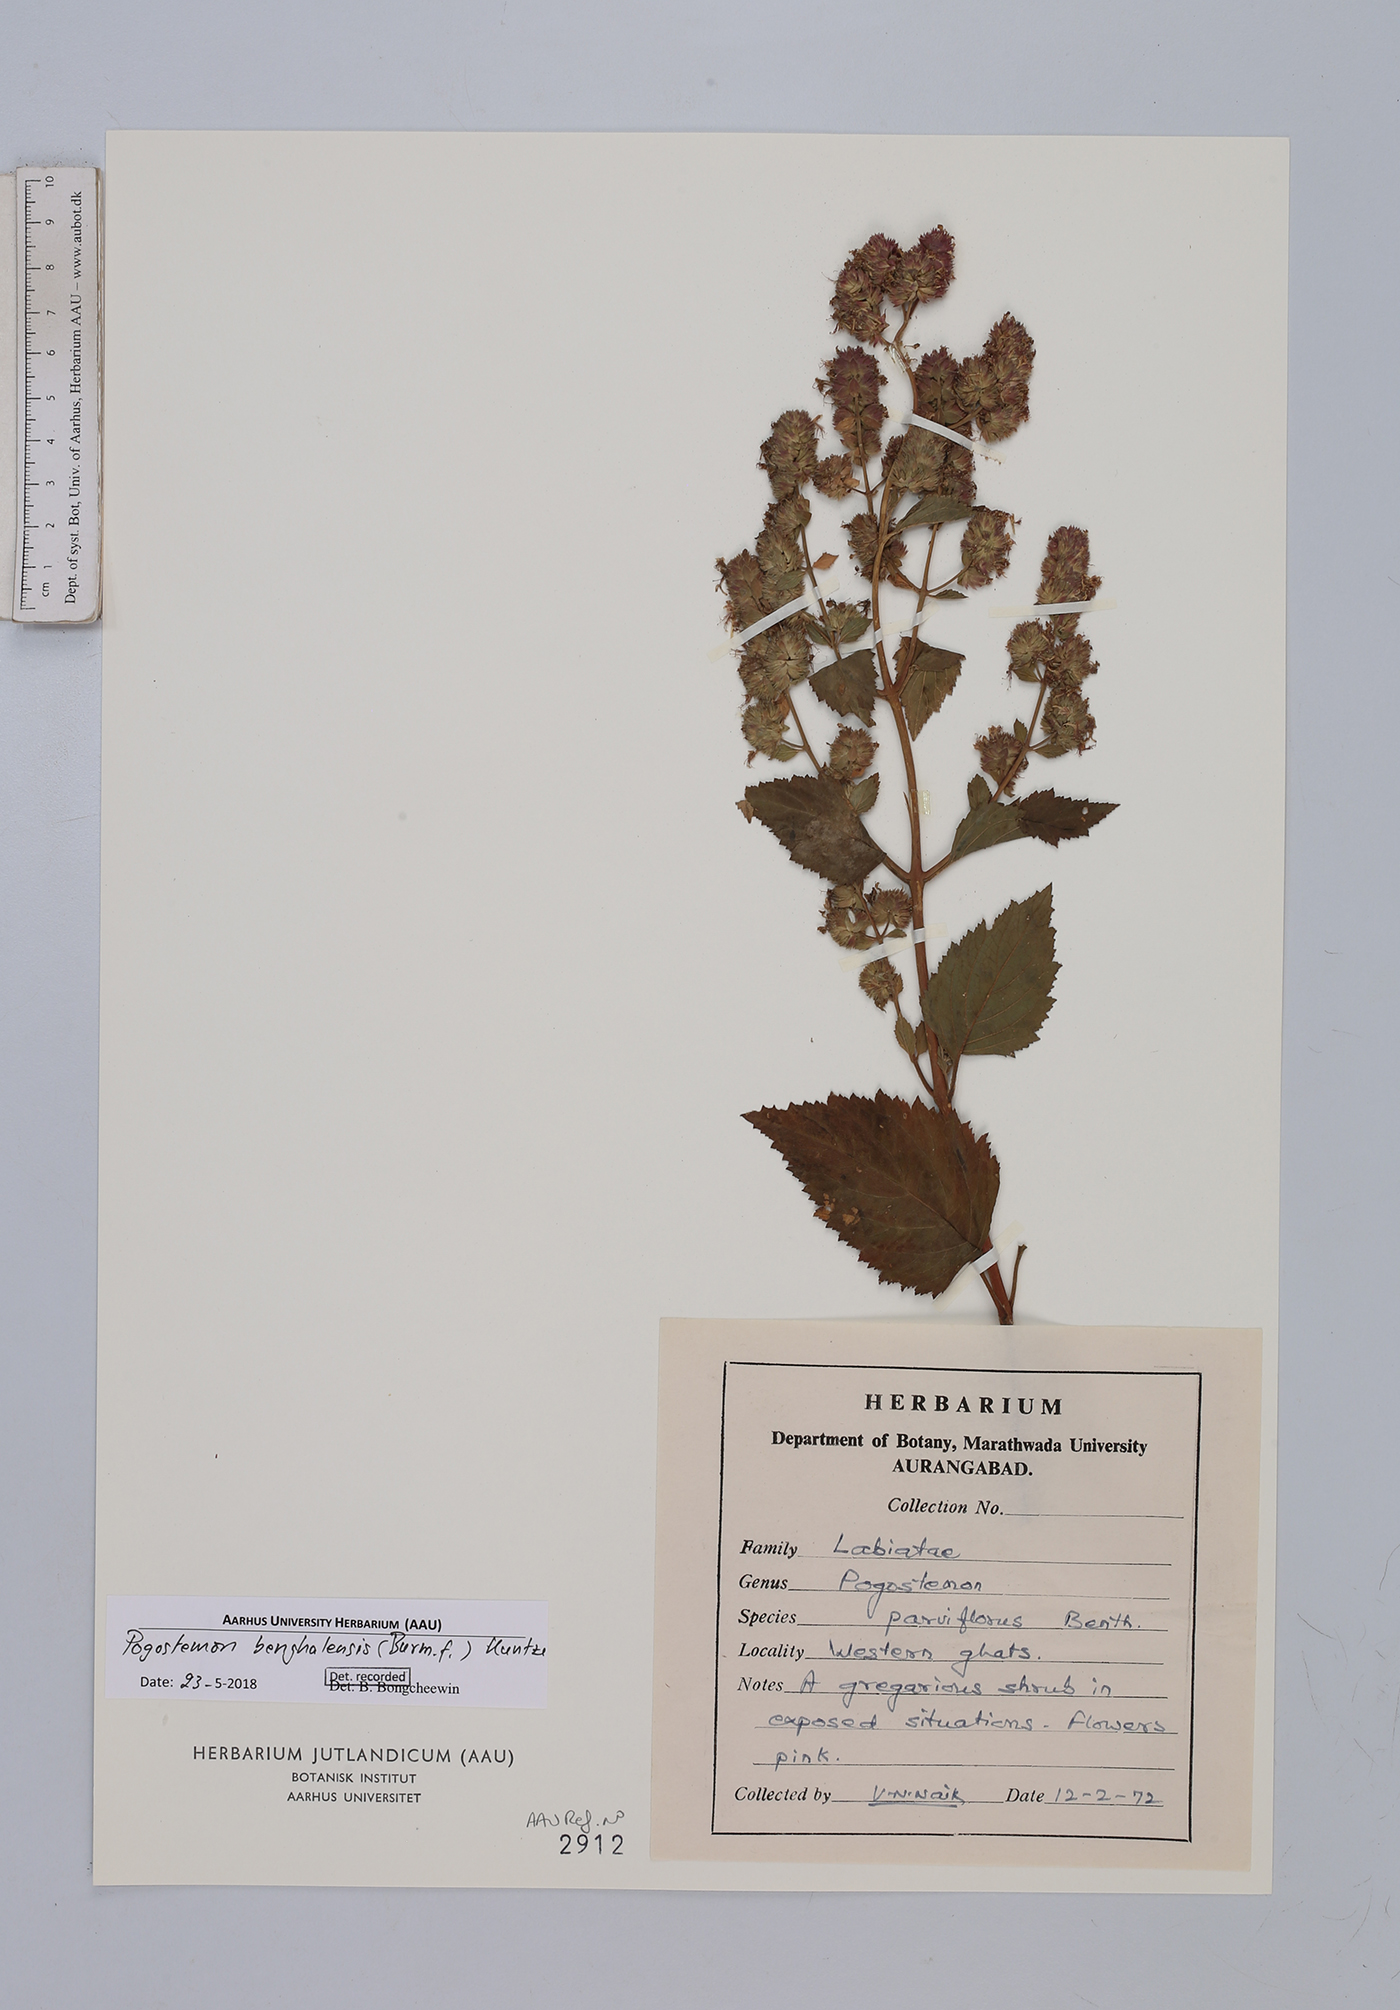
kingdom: Plantae
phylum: Tracheophyta
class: Magnoliopsida
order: Lamiales
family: Lamiaceae
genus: Pogostemon
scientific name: Pogostemon benghalensis
